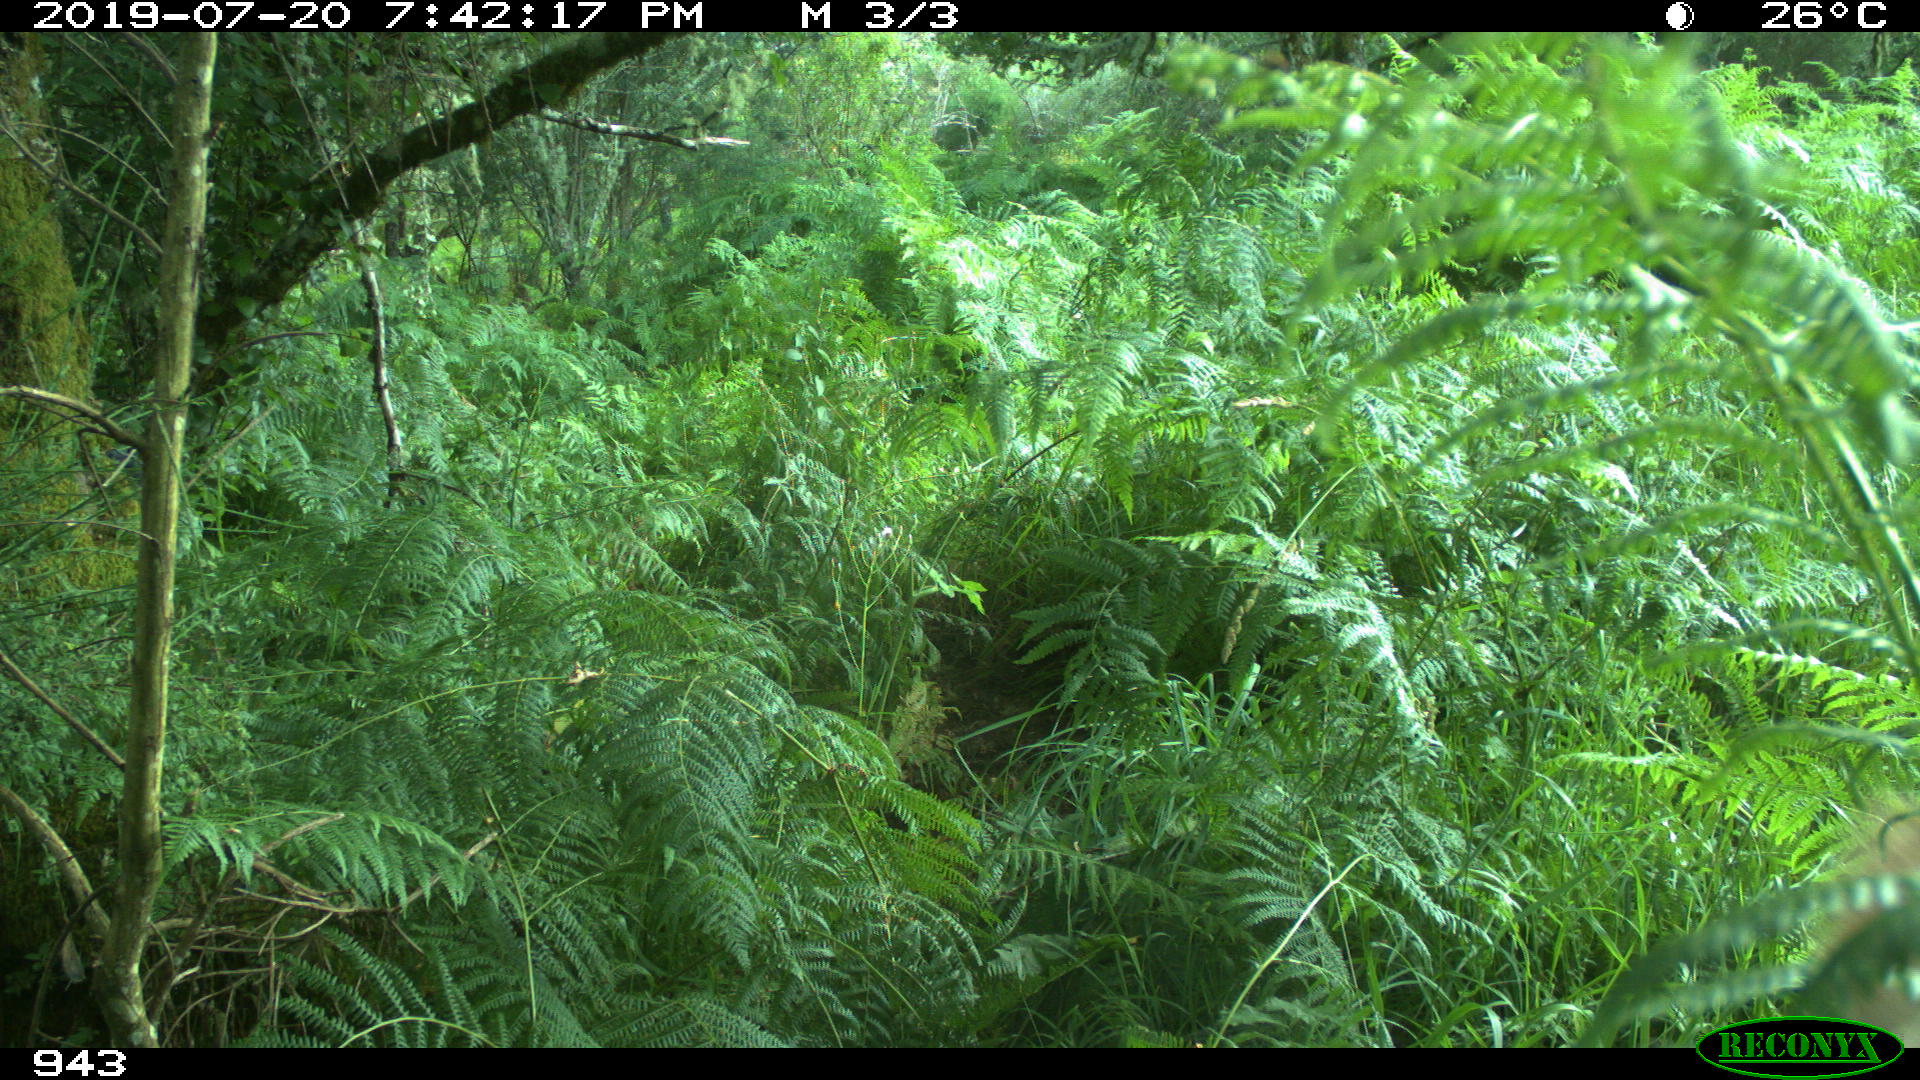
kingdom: Animalia
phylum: Chordata
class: Mammalia
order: Artiodactyla
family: Bovidae
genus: Bos
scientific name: Bos taurus
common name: Domesticated cattle
